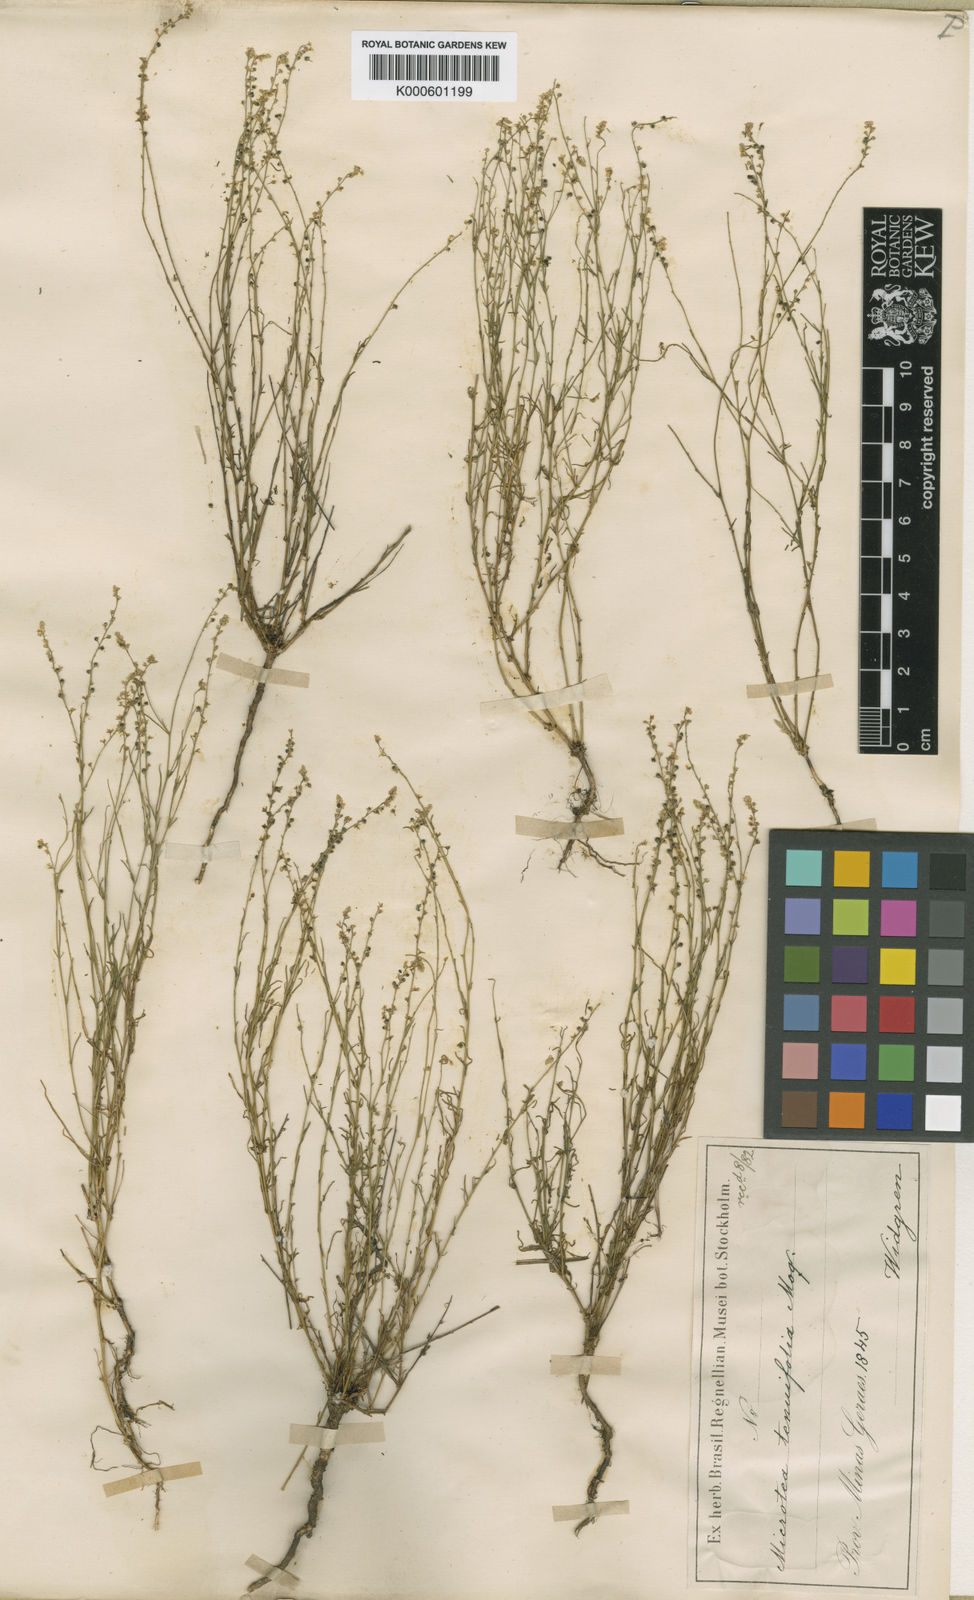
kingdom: Plantae
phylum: Tracheophyta
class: Magnoliopsida
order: Caryophyllales
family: Microteaceae
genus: Microtea
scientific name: Microtea tenuifolia
